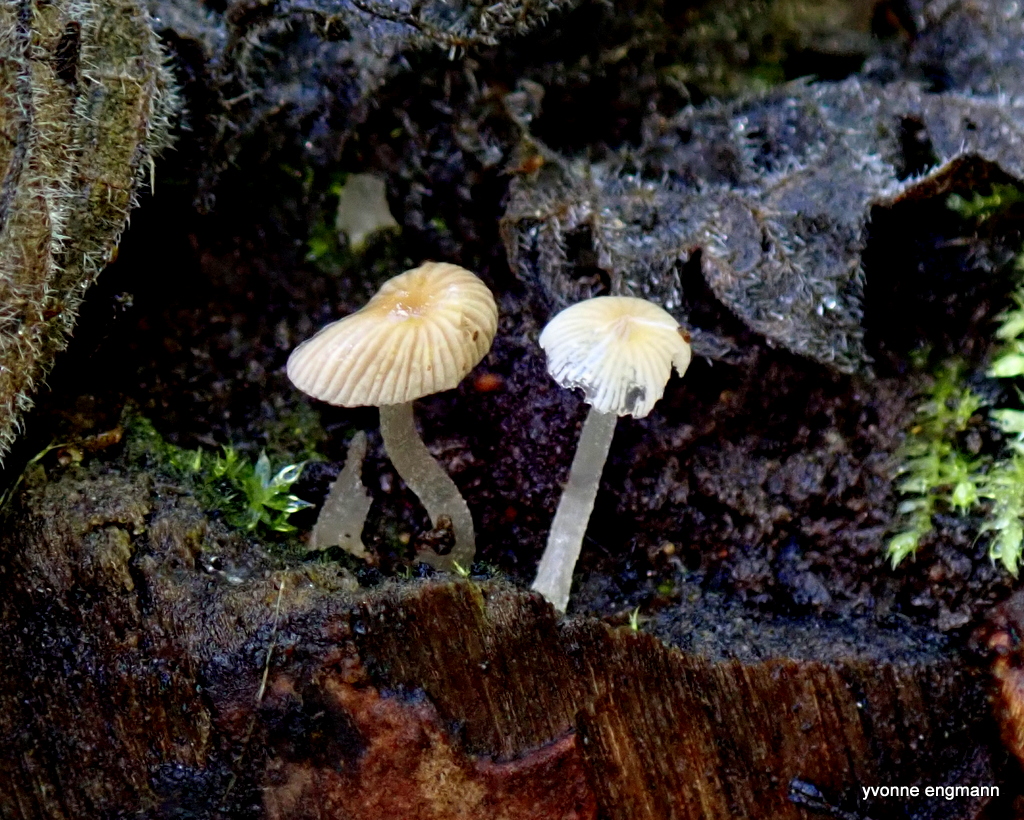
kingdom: Fungi
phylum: Basidiomycota
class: Agaricomycetes
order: Agaricales
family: Psathyrellaceae
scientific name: Psathyrellaceae
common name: mørkhatfamilien
